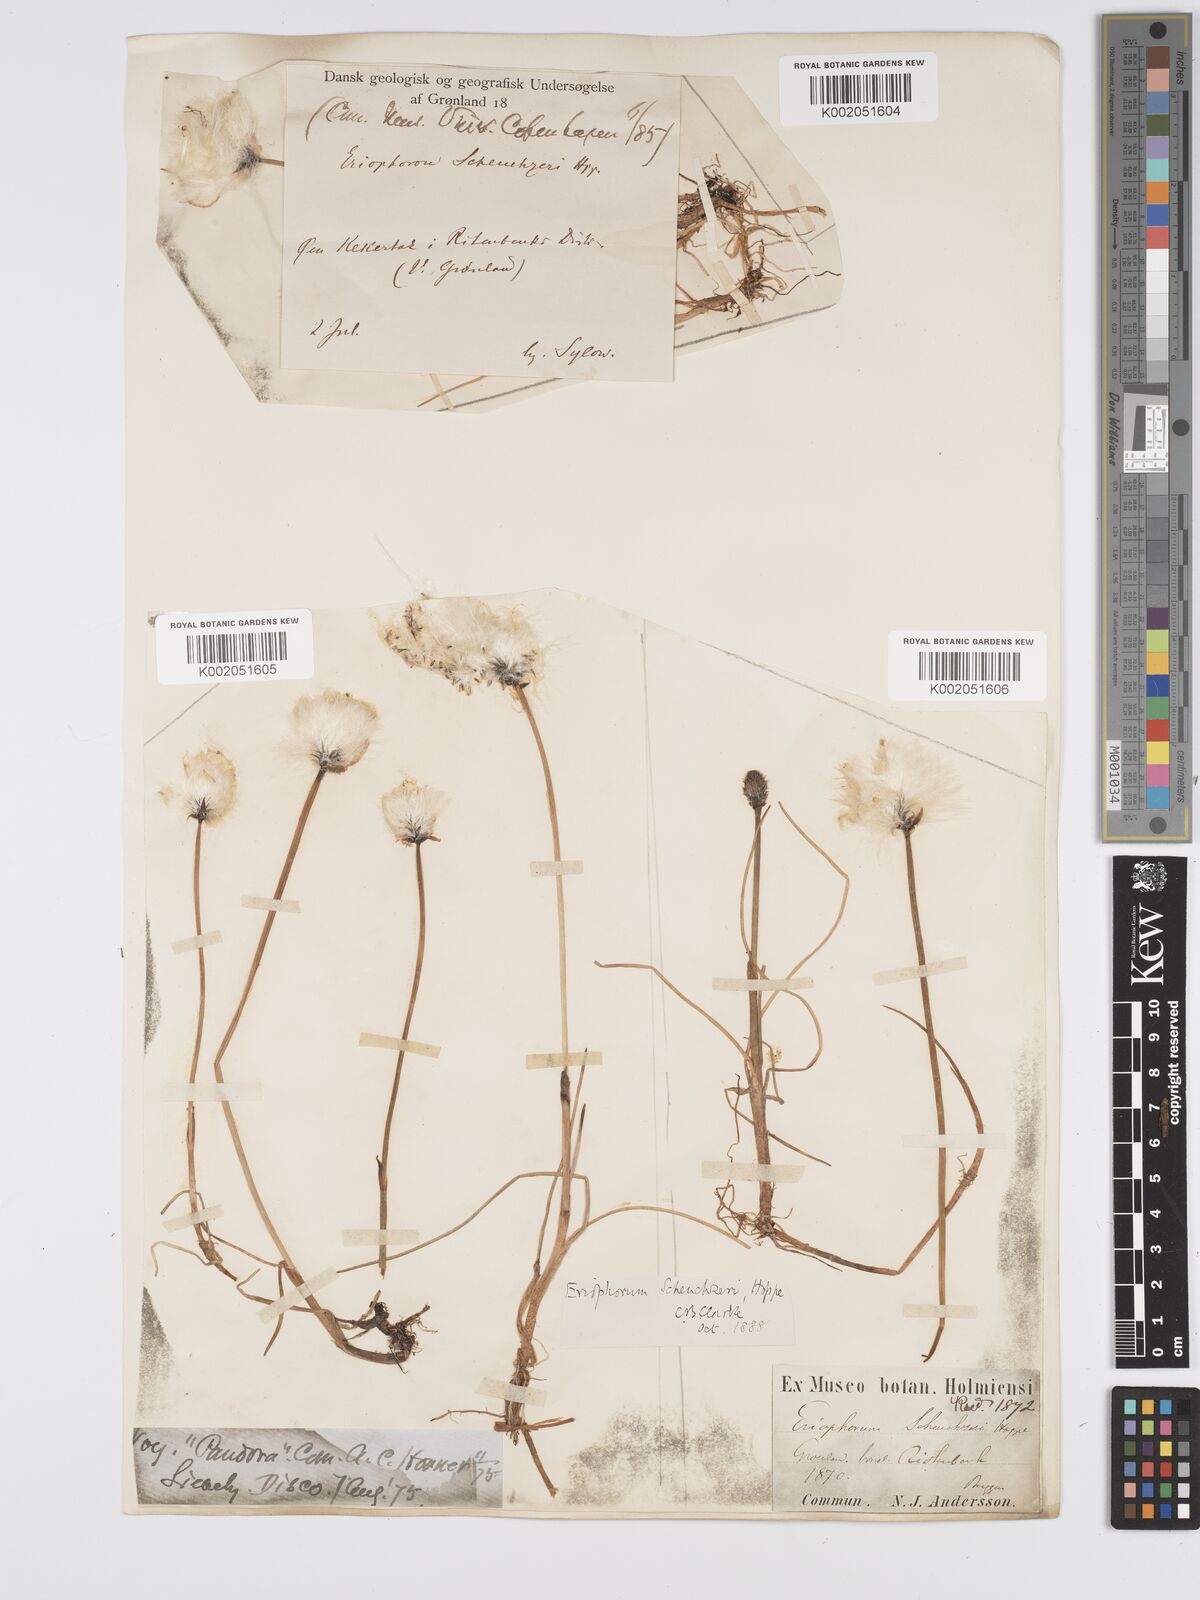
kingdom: Plantae
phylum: Tracheophyta
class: Liliopsida
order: Poales
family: Cyperaceae
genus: Eriophorum
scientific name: Eriophorum scheuchzeri
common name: Scheuchzer's cottongrass
